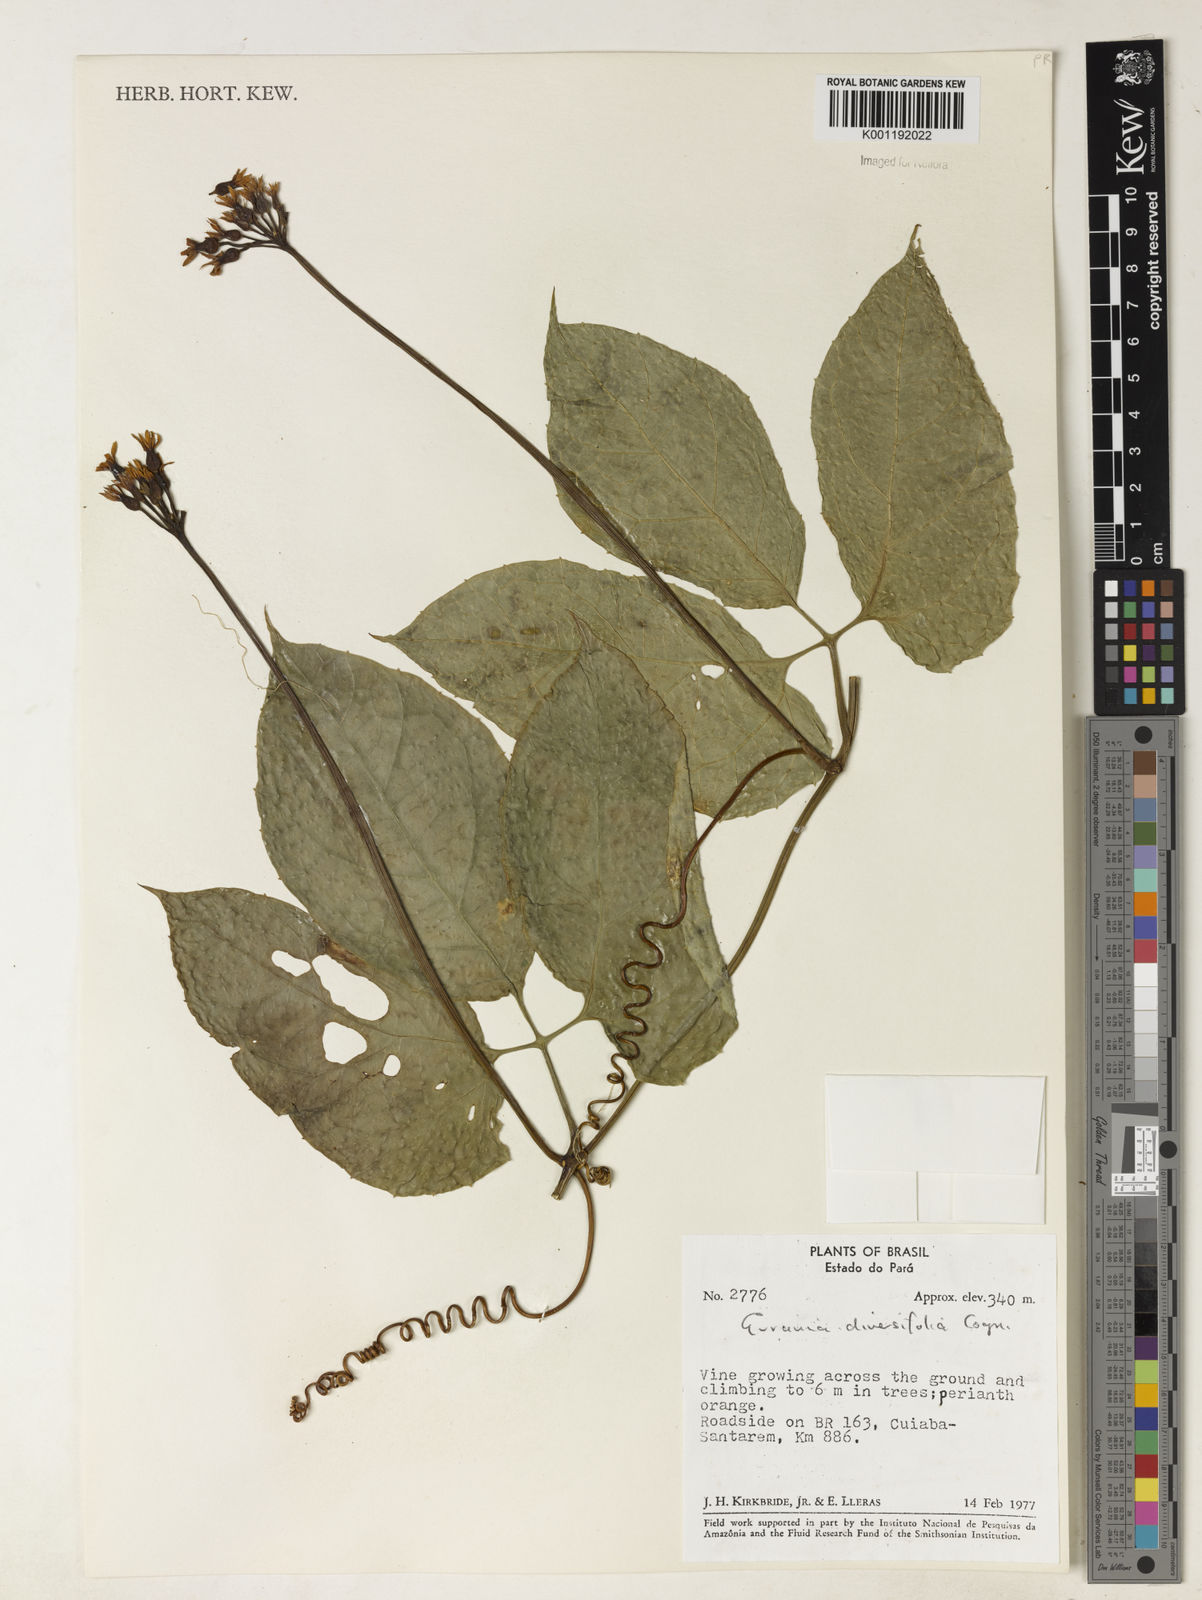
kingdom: Plantae
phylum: Tracheophyta
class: Magnoliopsida
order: Cucurbitales
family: Cucurbitaceae
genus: Gurania
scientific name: Gurania acuminata
